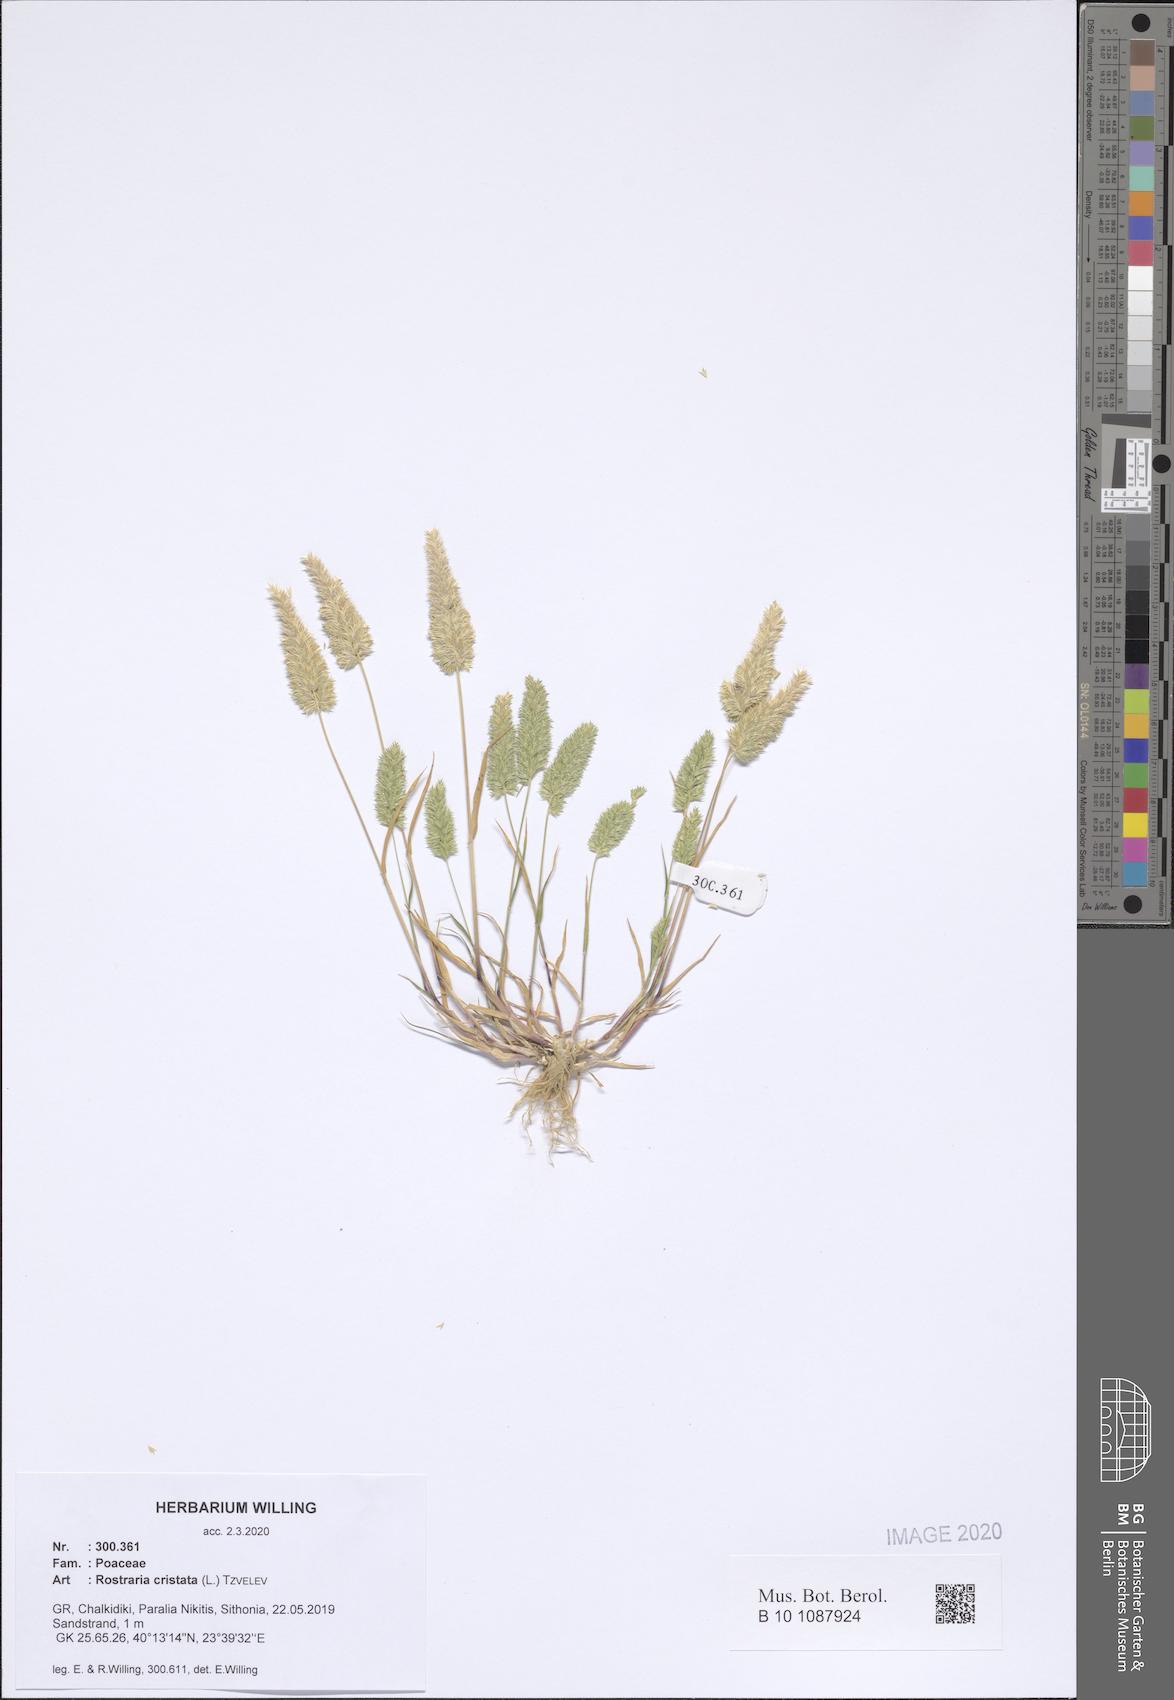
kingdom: Plantae
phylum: Tracheophyta
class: Liliopsida
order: Poales
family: Poaceae
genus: Rostraria
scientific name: Rostraria cristata
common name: Mediterranean hair-grass
